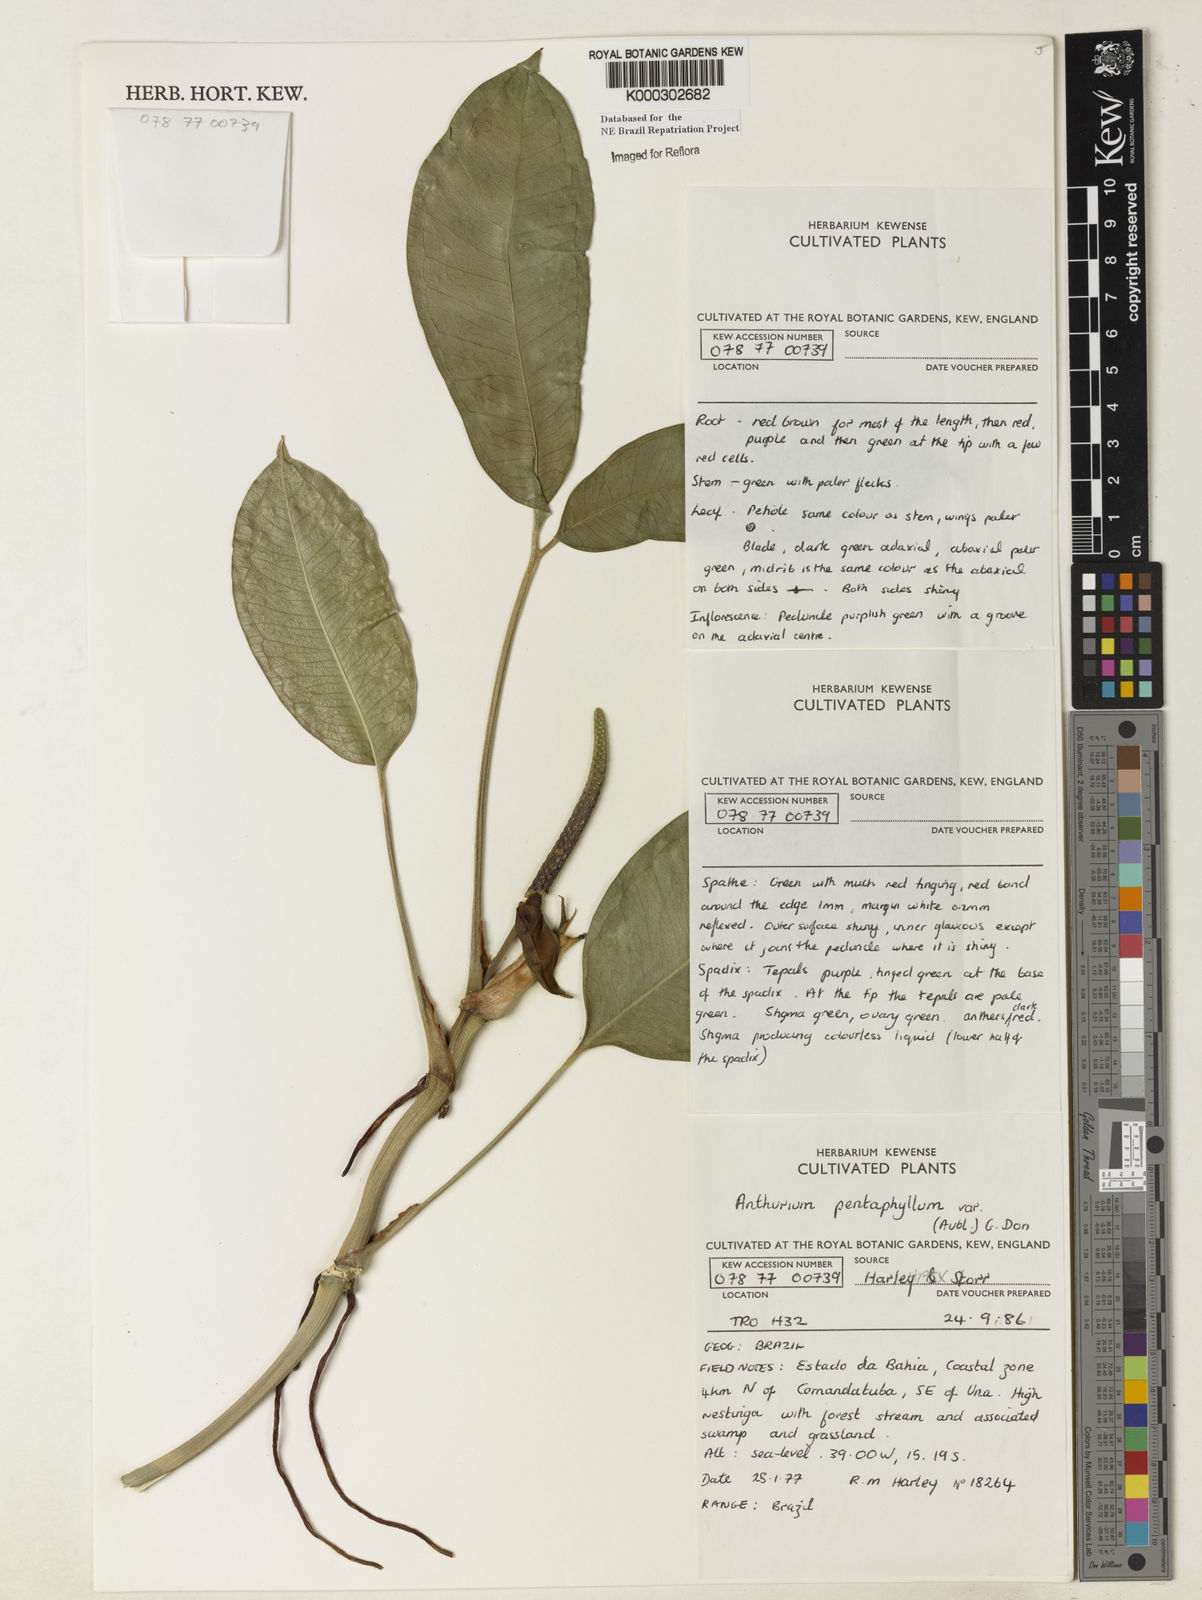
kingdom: Plantae
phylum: Tracheophyta
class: Liliopsida
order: Alismatales
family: Araceae
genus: Anthurium
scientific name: Anthurium pentaphyllum
